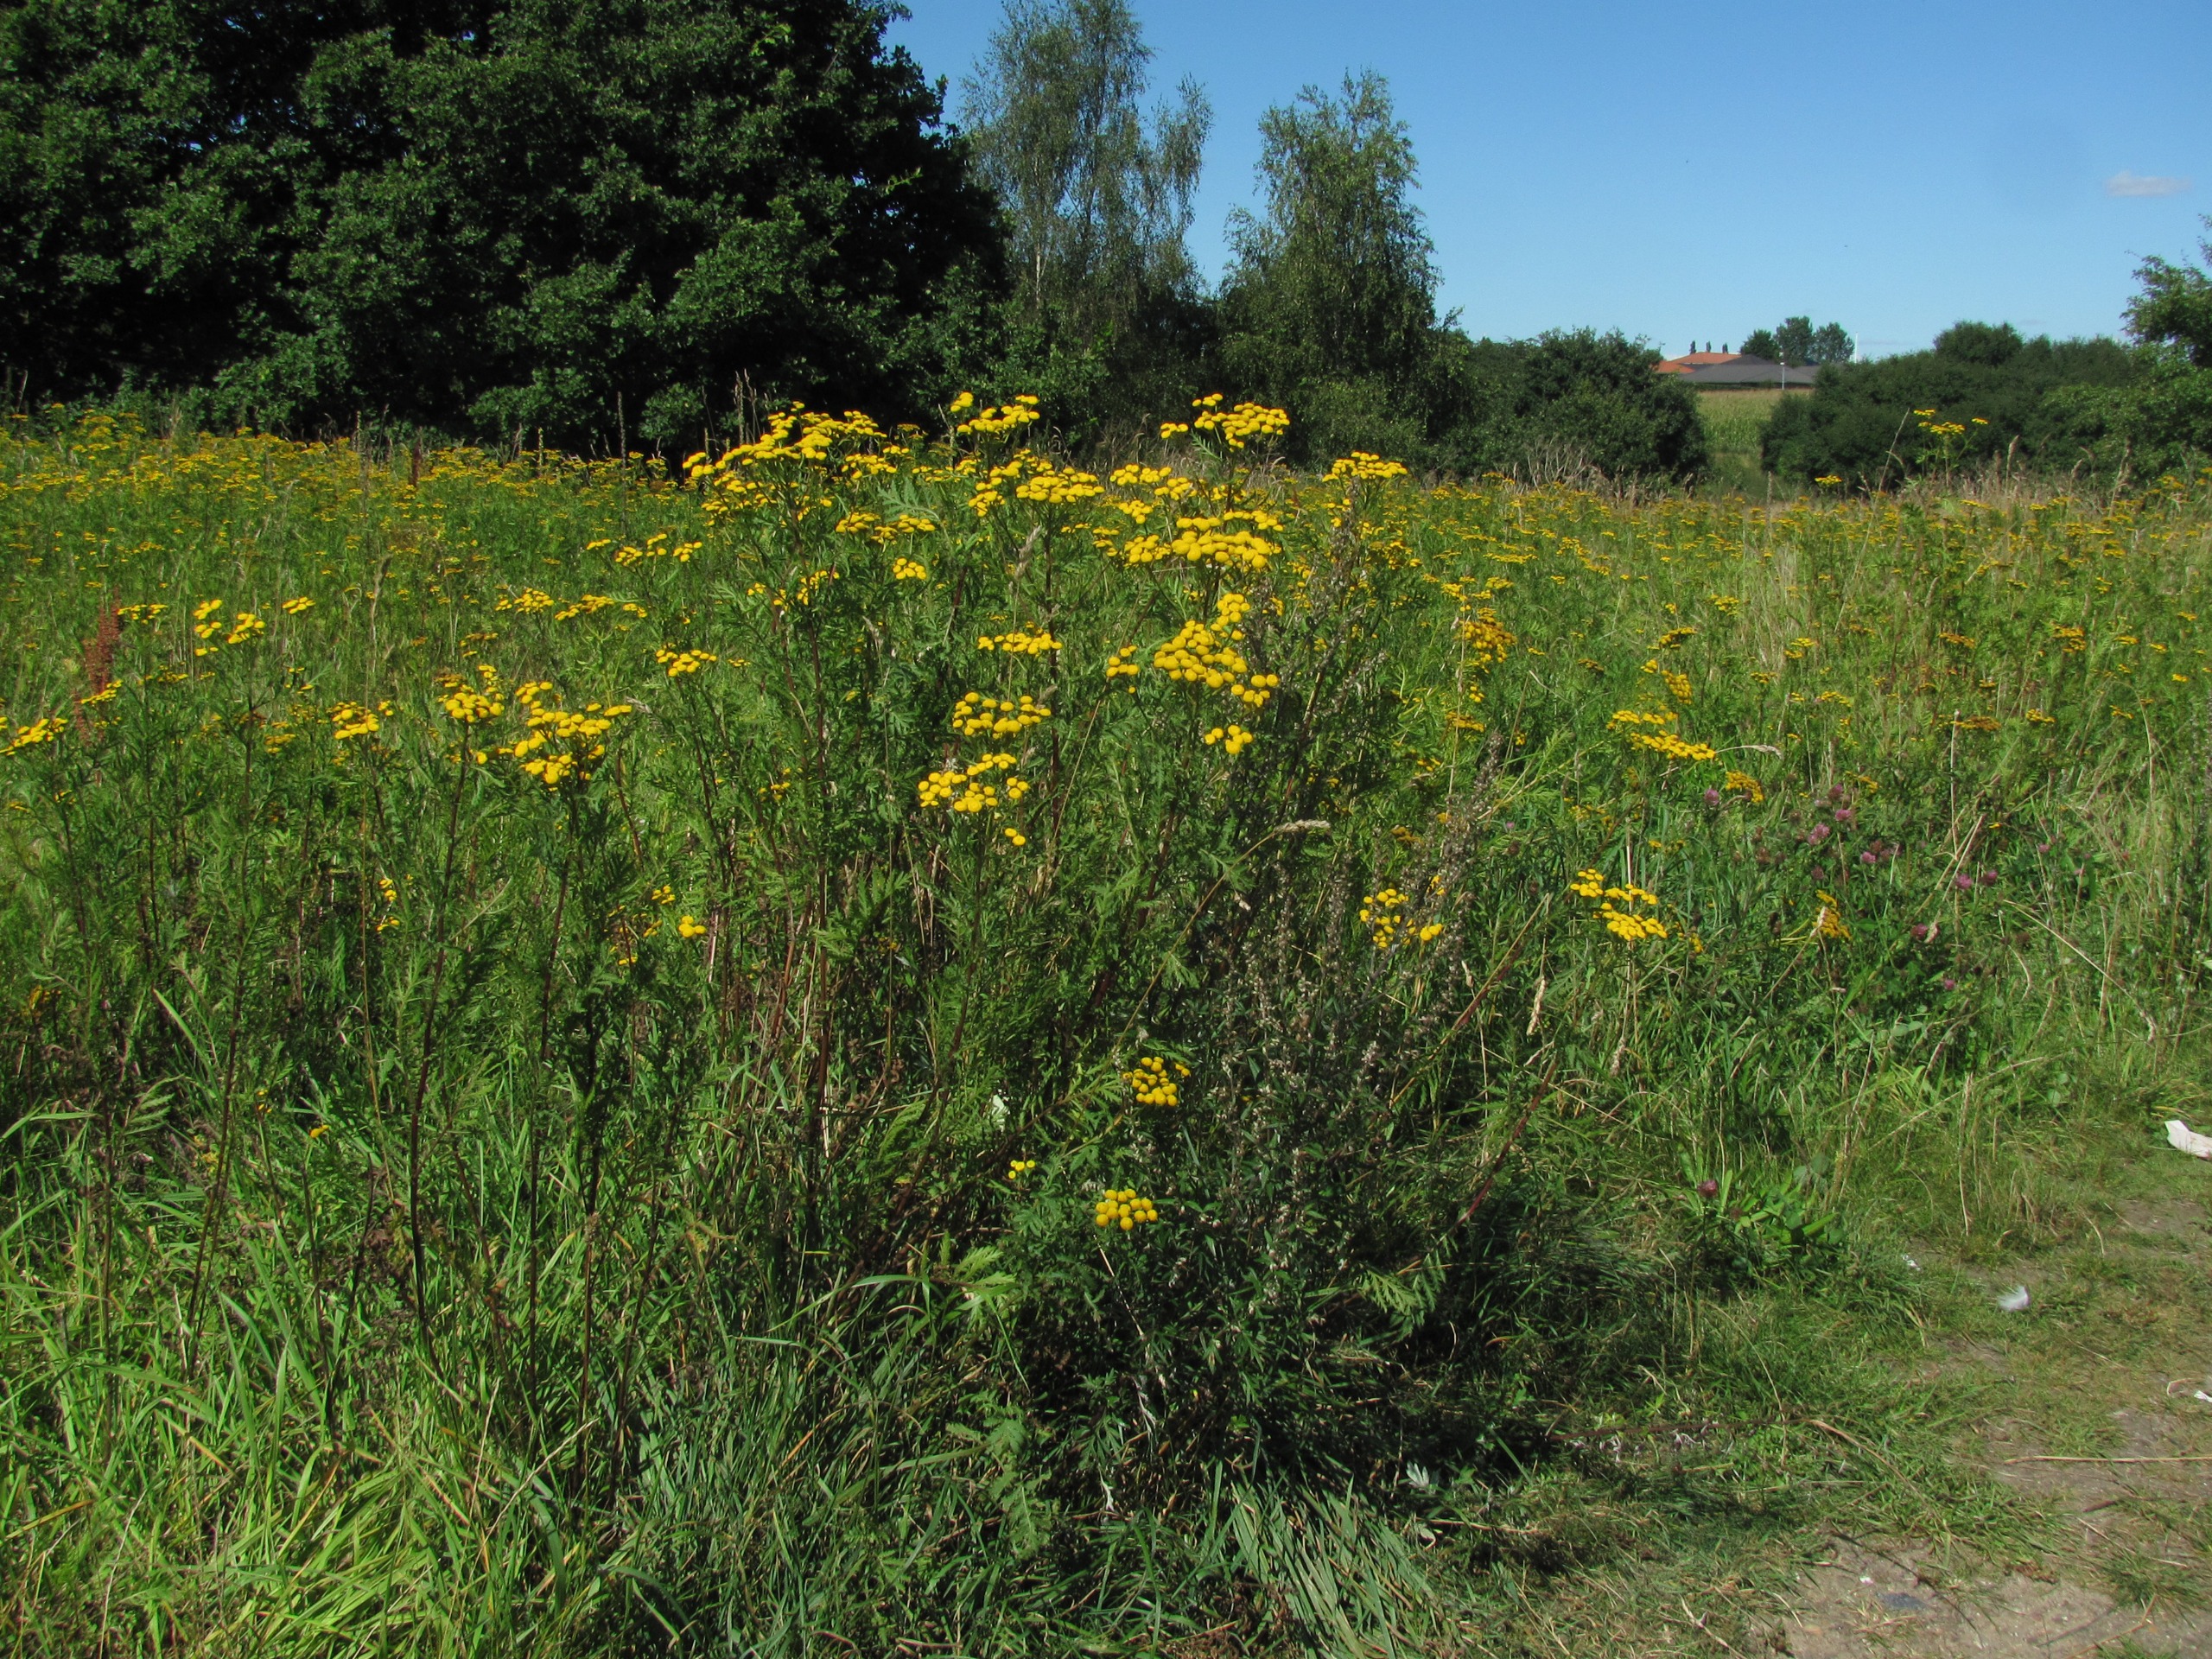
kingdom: Plantae
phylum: Tracheophyta
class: Magnoliopsida
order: Asterales
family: Asteraceae
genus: Tanacetum
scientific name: Tanacetum vulgare
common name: Rejnfan
